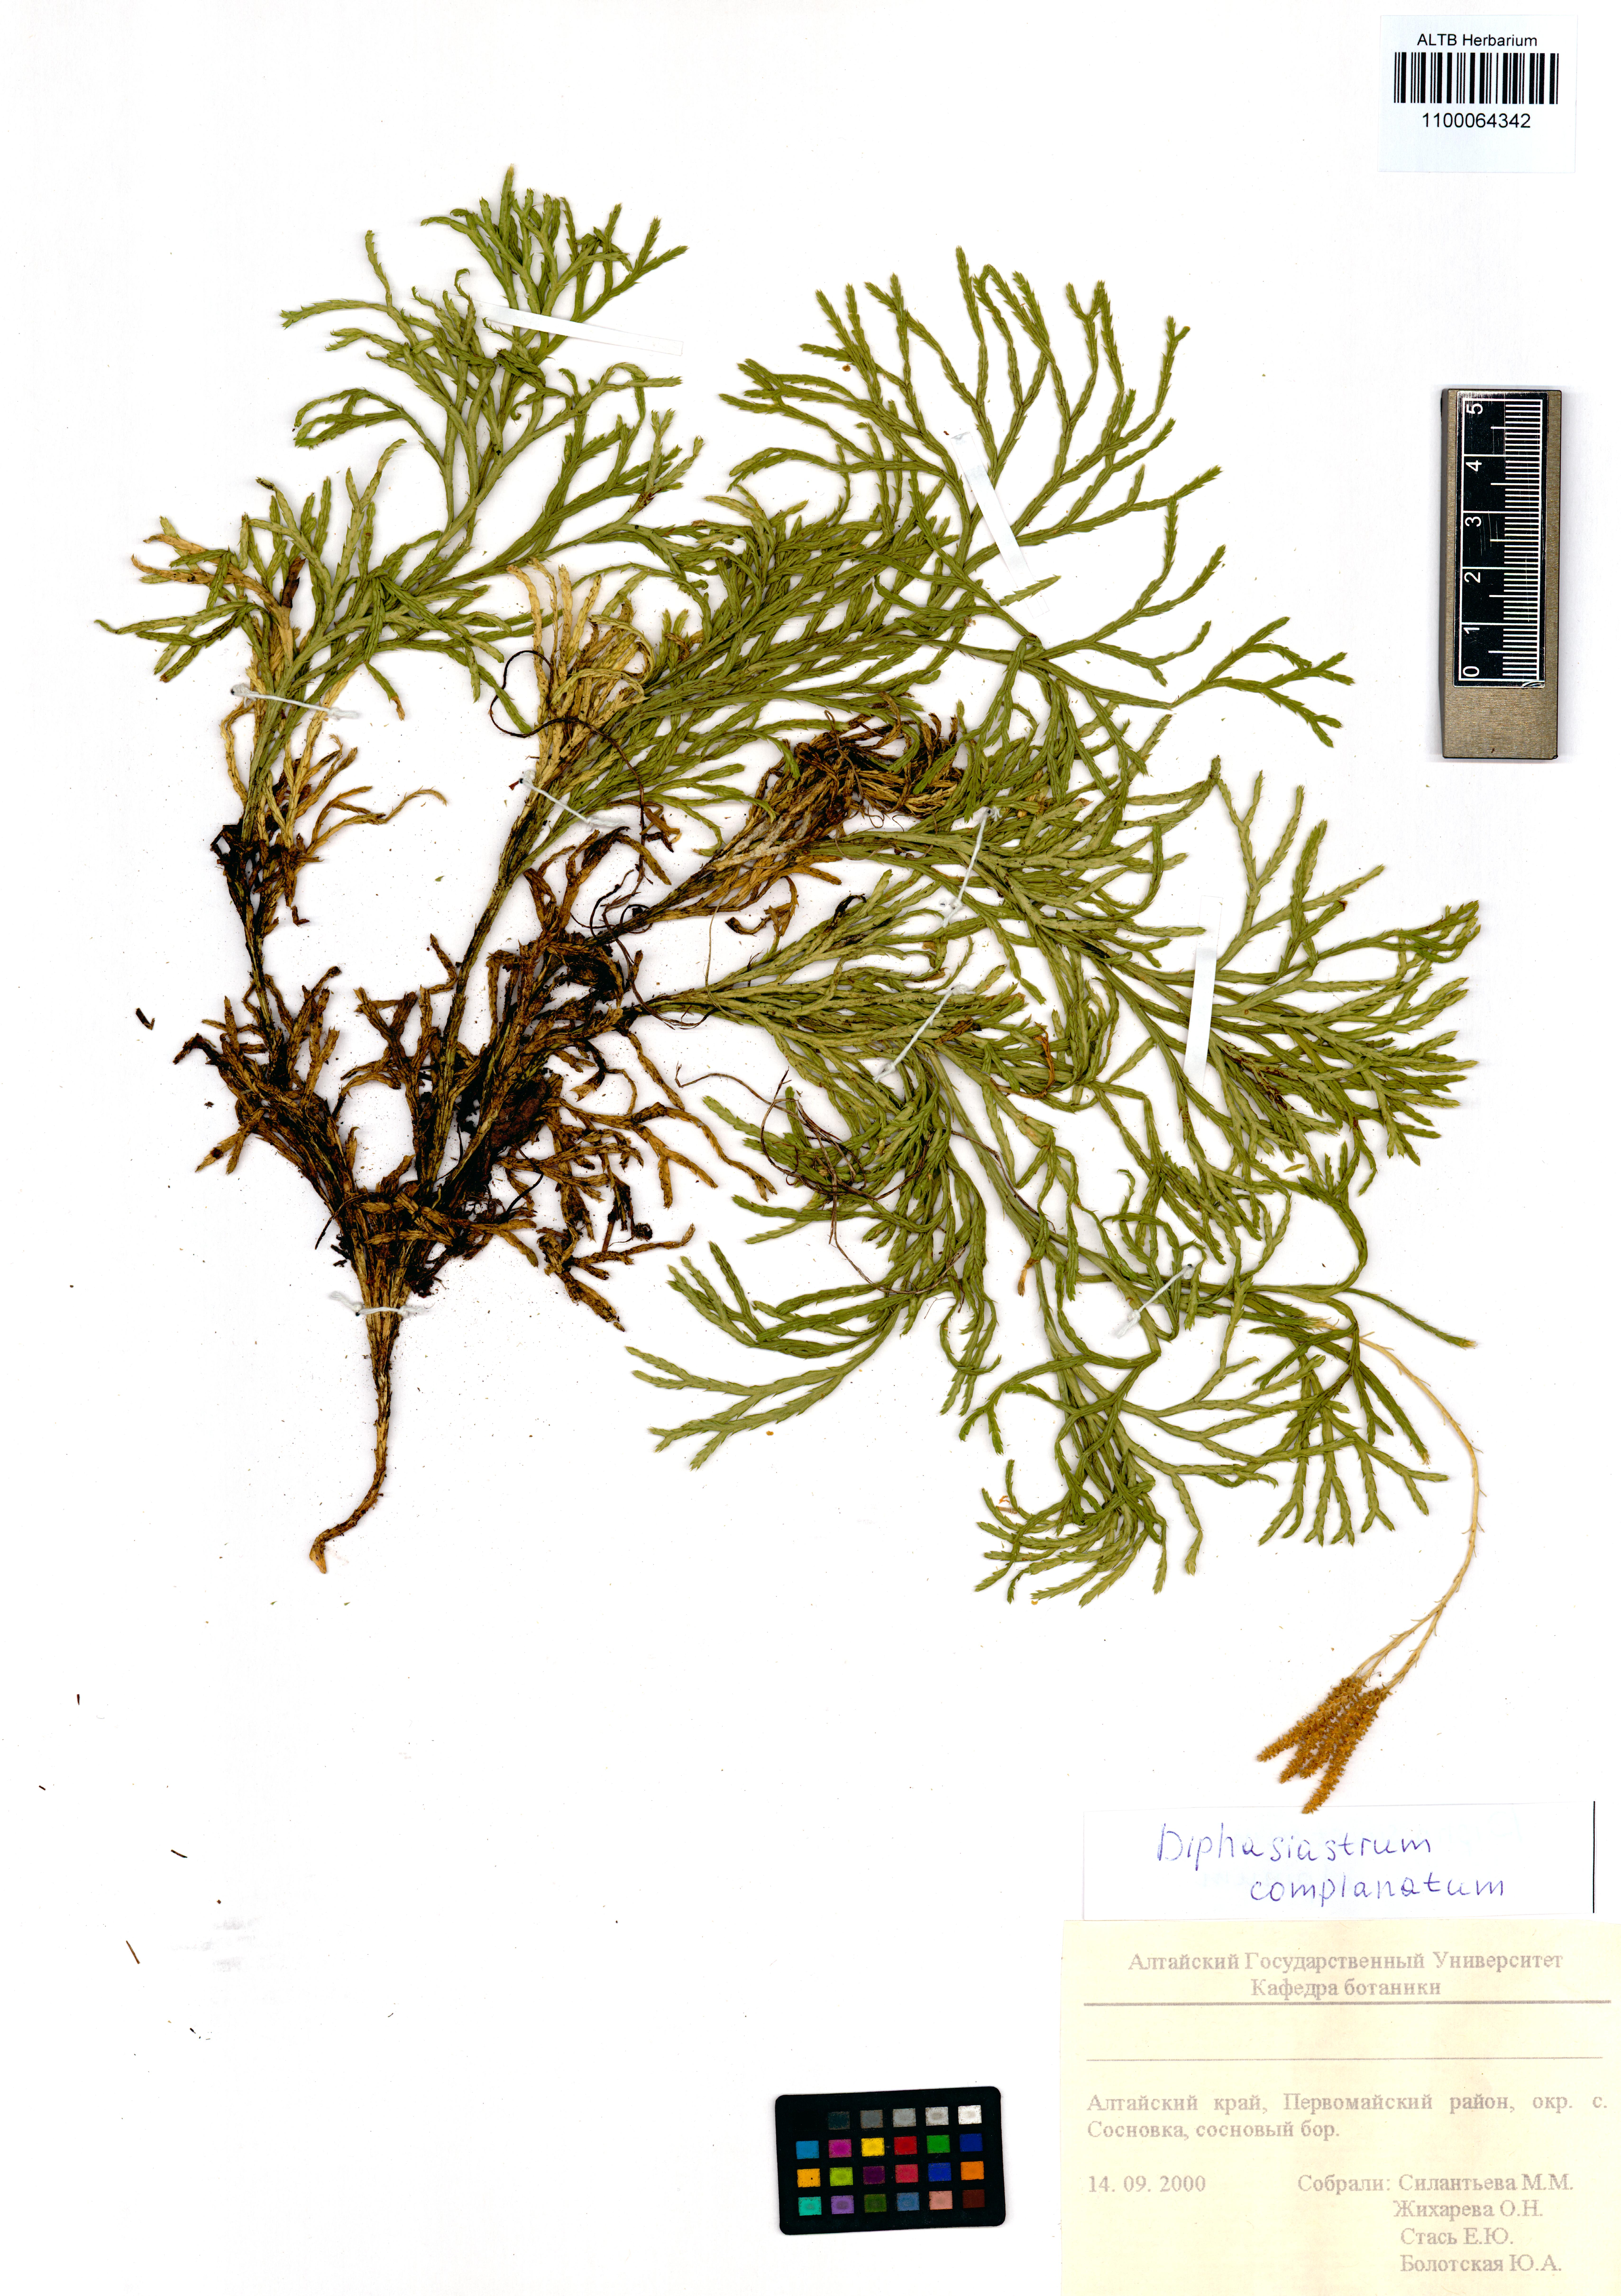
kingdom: Plantae
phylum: Tracheophyta
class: Lycopodiopsida
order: Lycopodiales
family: Lycopodiaceae
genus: Diphasiastrum
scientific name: Diphasiastrum complanatum
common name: Northern running-pine
